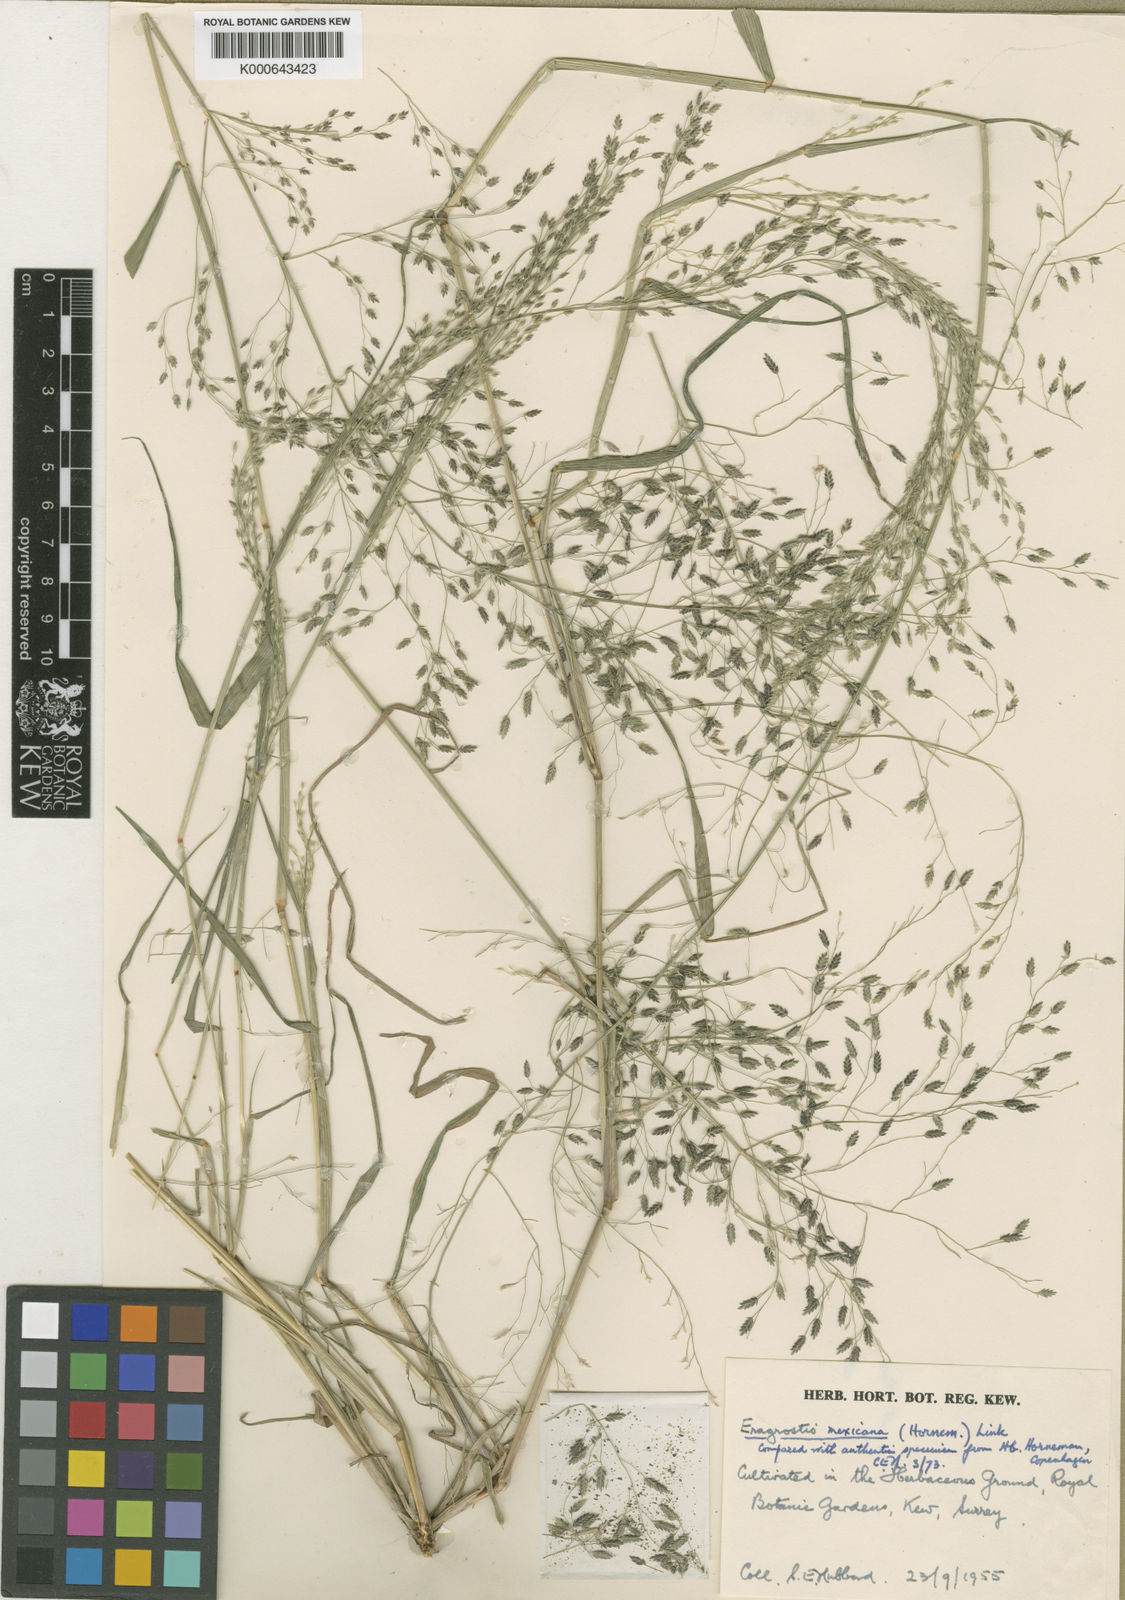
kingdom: Plantae
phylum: Tracheophyta
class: Liliopsida
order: Poales
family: Poaceae
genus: Eragrostis
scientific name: Eragrostis mexicana
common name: Mexican love grass
